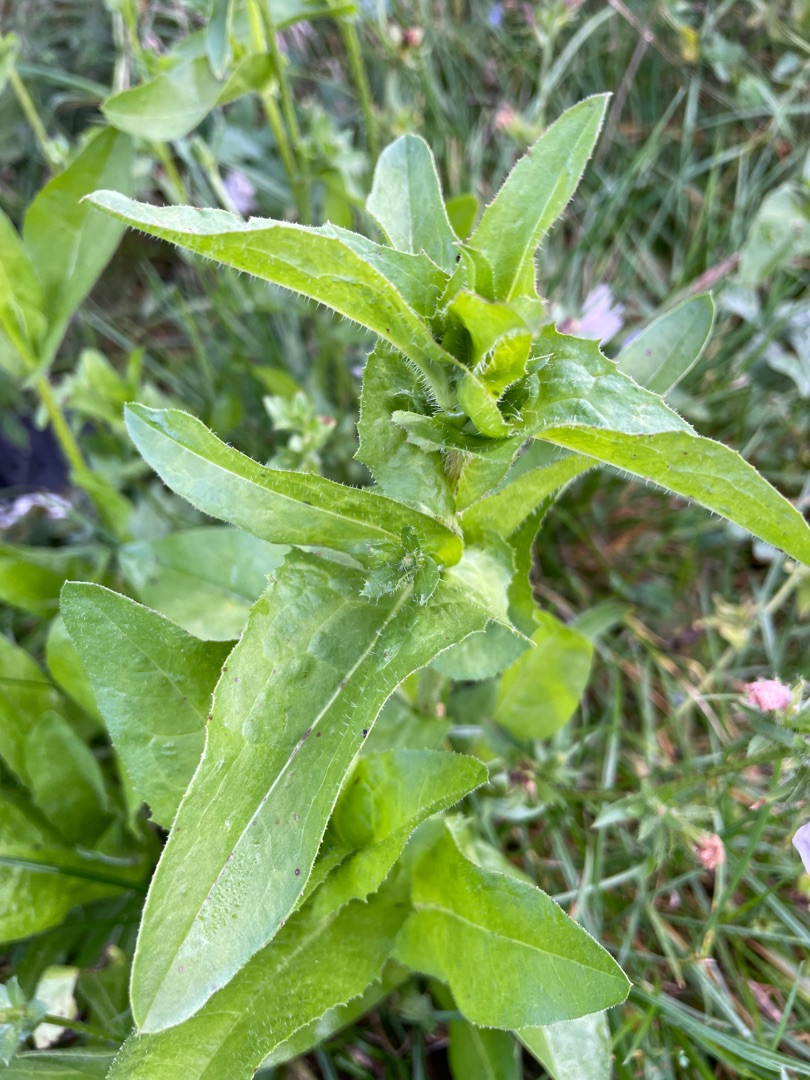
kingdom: Plantae
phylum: Tracheophyta
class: Magnoliopsida
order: Asterales
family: Asteraceae
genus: Cichorium
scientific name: Cichorium intybus
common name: Cikorie
